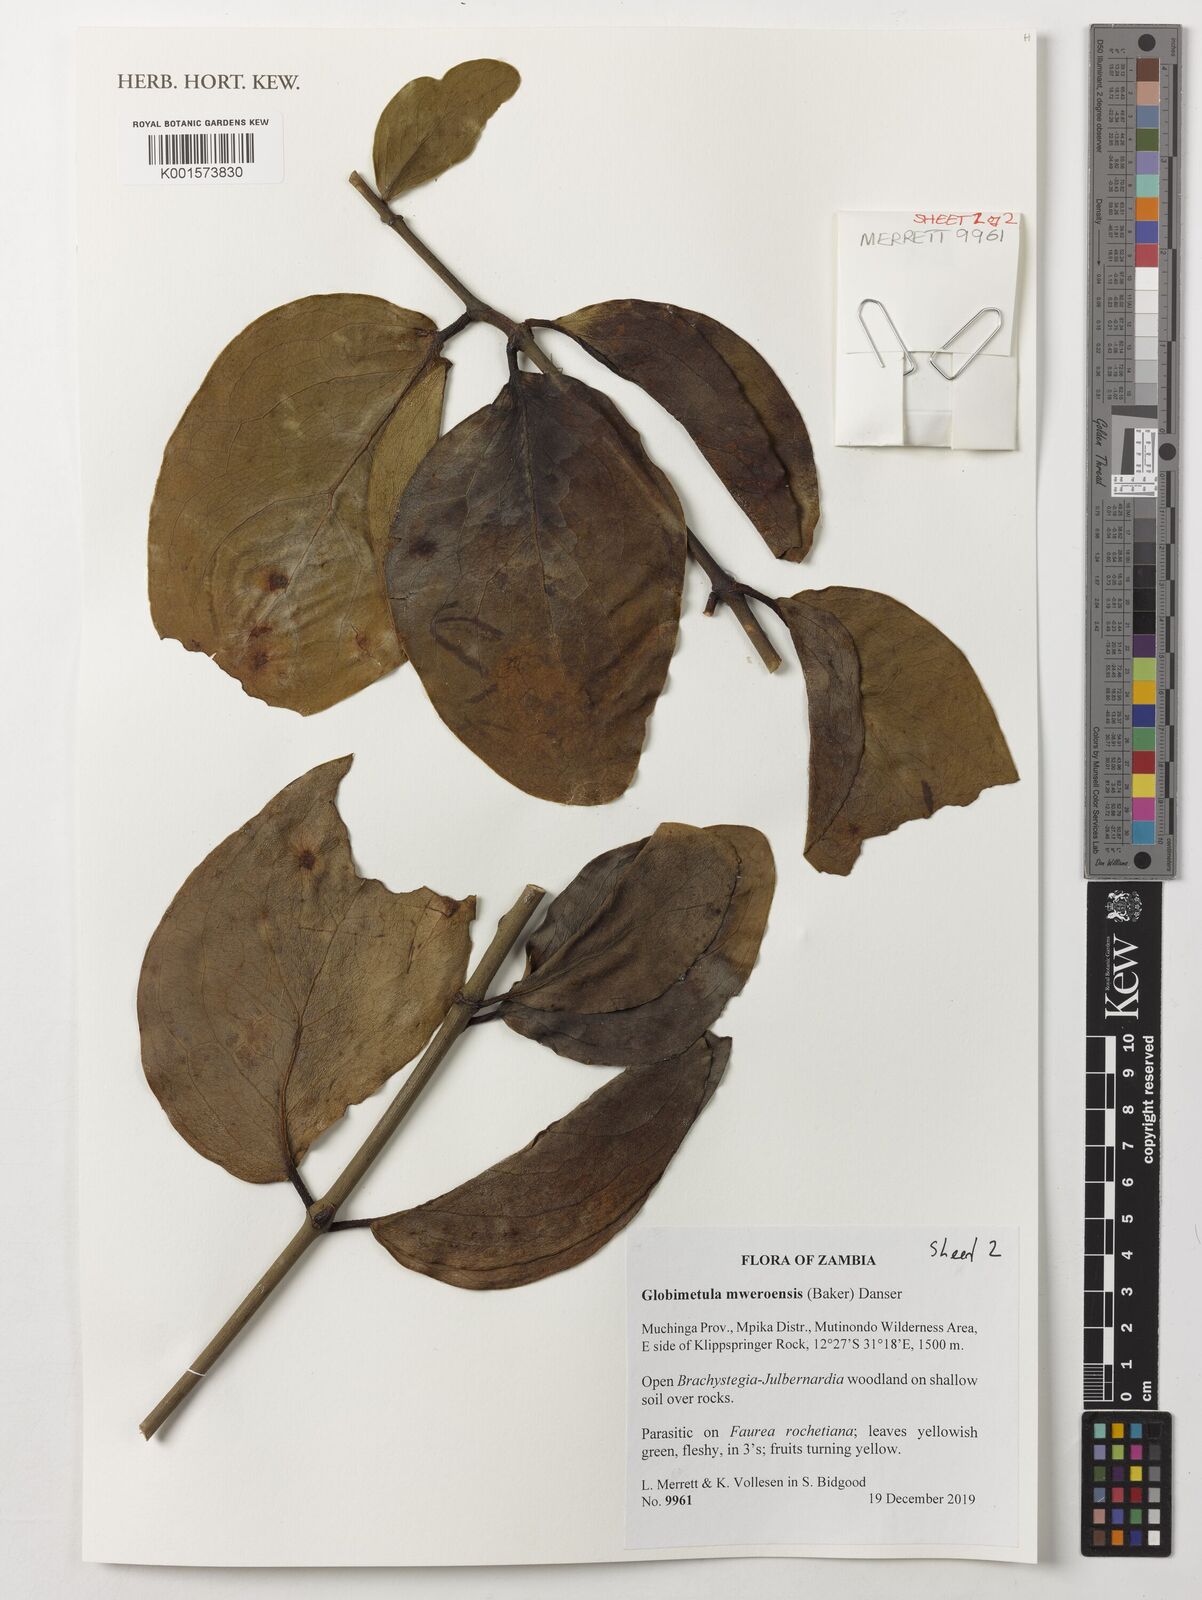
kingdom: Plantae
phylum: Tracheophyta
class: Magnoliopsida
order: Santalales
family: Loranthaceae
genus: Globimetula
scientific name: Globimetula mweroensis
